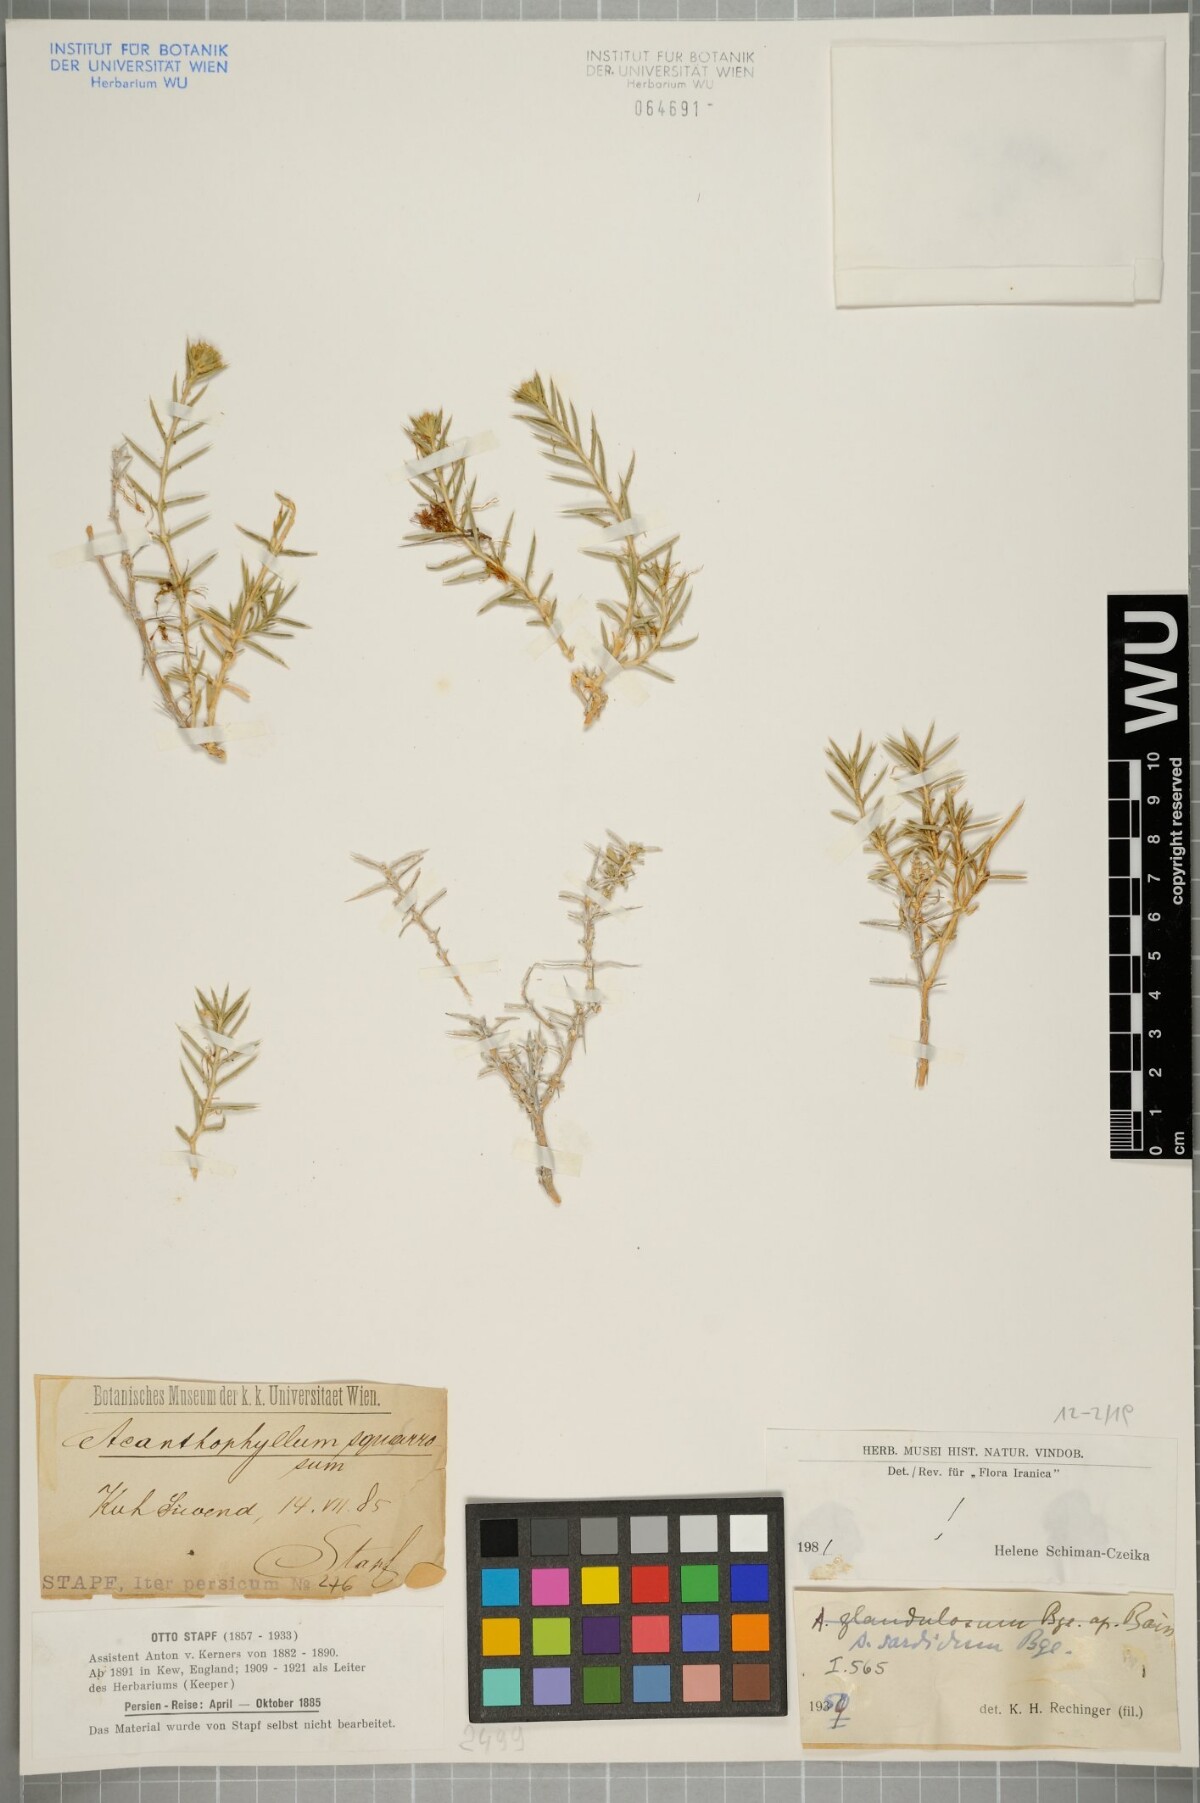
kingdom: Plantae
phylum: Tracheophyta
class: Magnoliopsida
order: Caryophyllales
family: Caryophyllaceae
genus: Acanthophyllum
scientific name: Acanthophyllum sordidum
